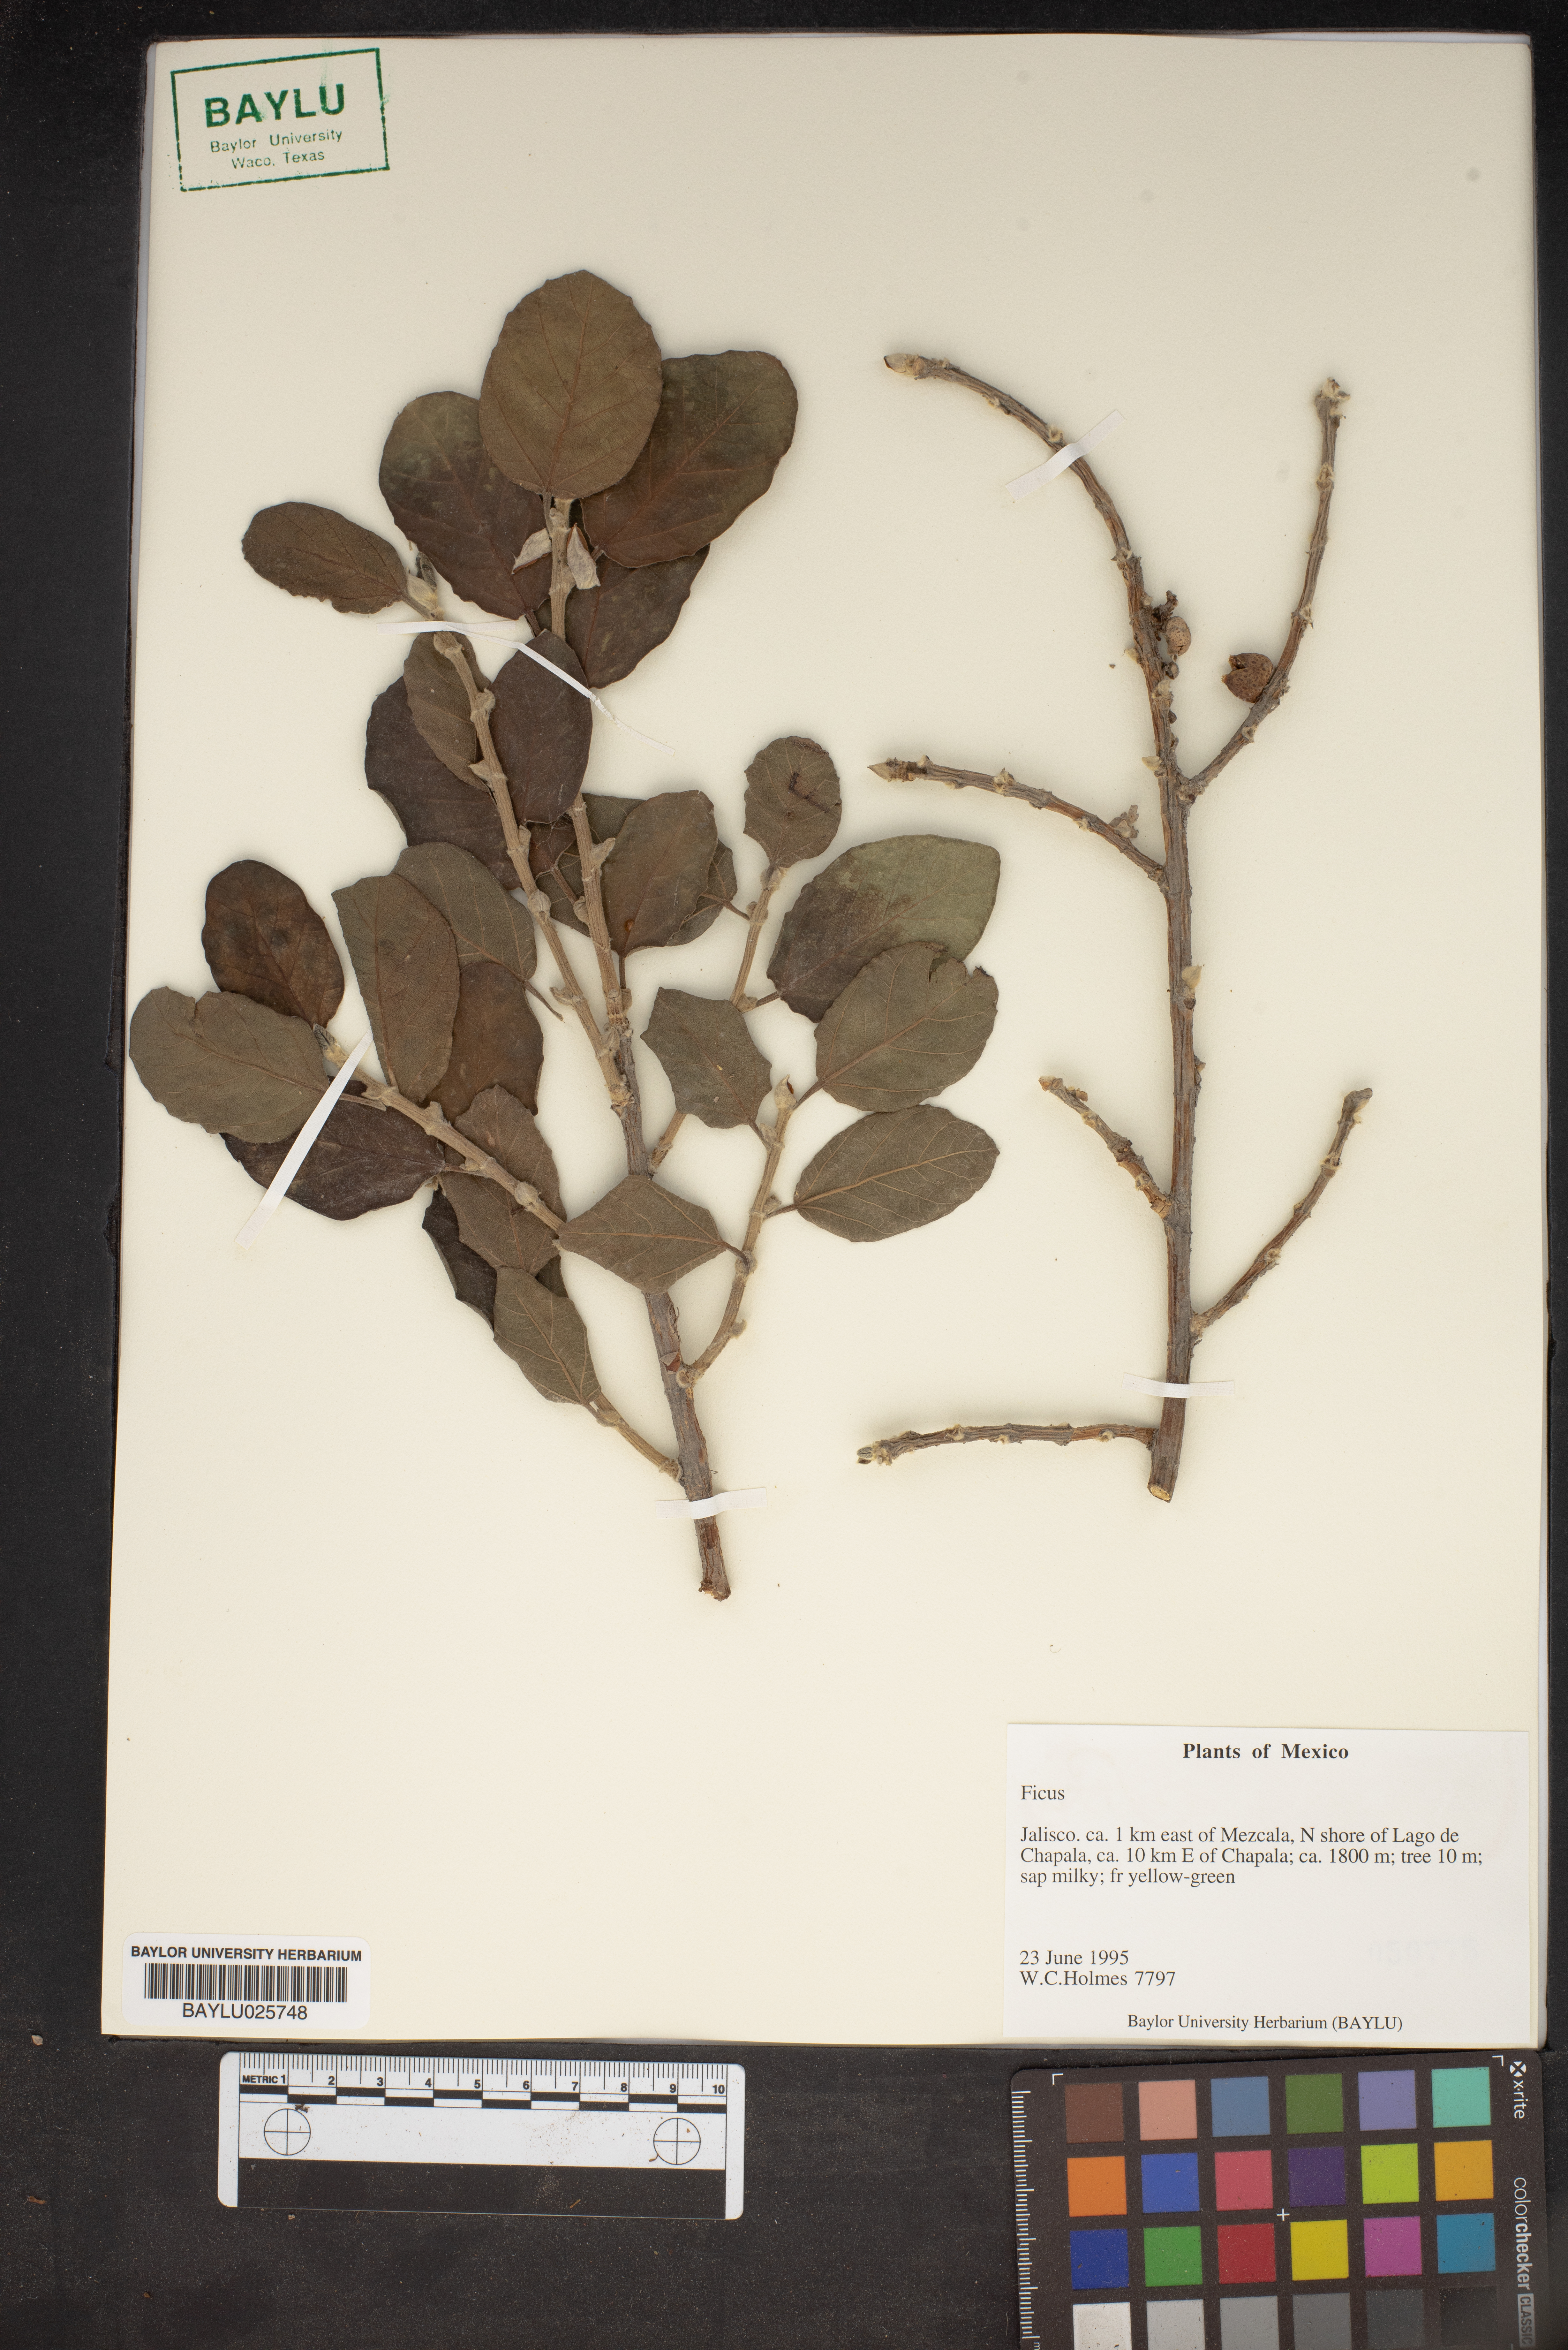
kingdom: Plantae
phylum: Tracheophyta
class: Magnoliopsida
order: Rosales
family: Moraceae
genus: Ficus
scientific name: Ficus
